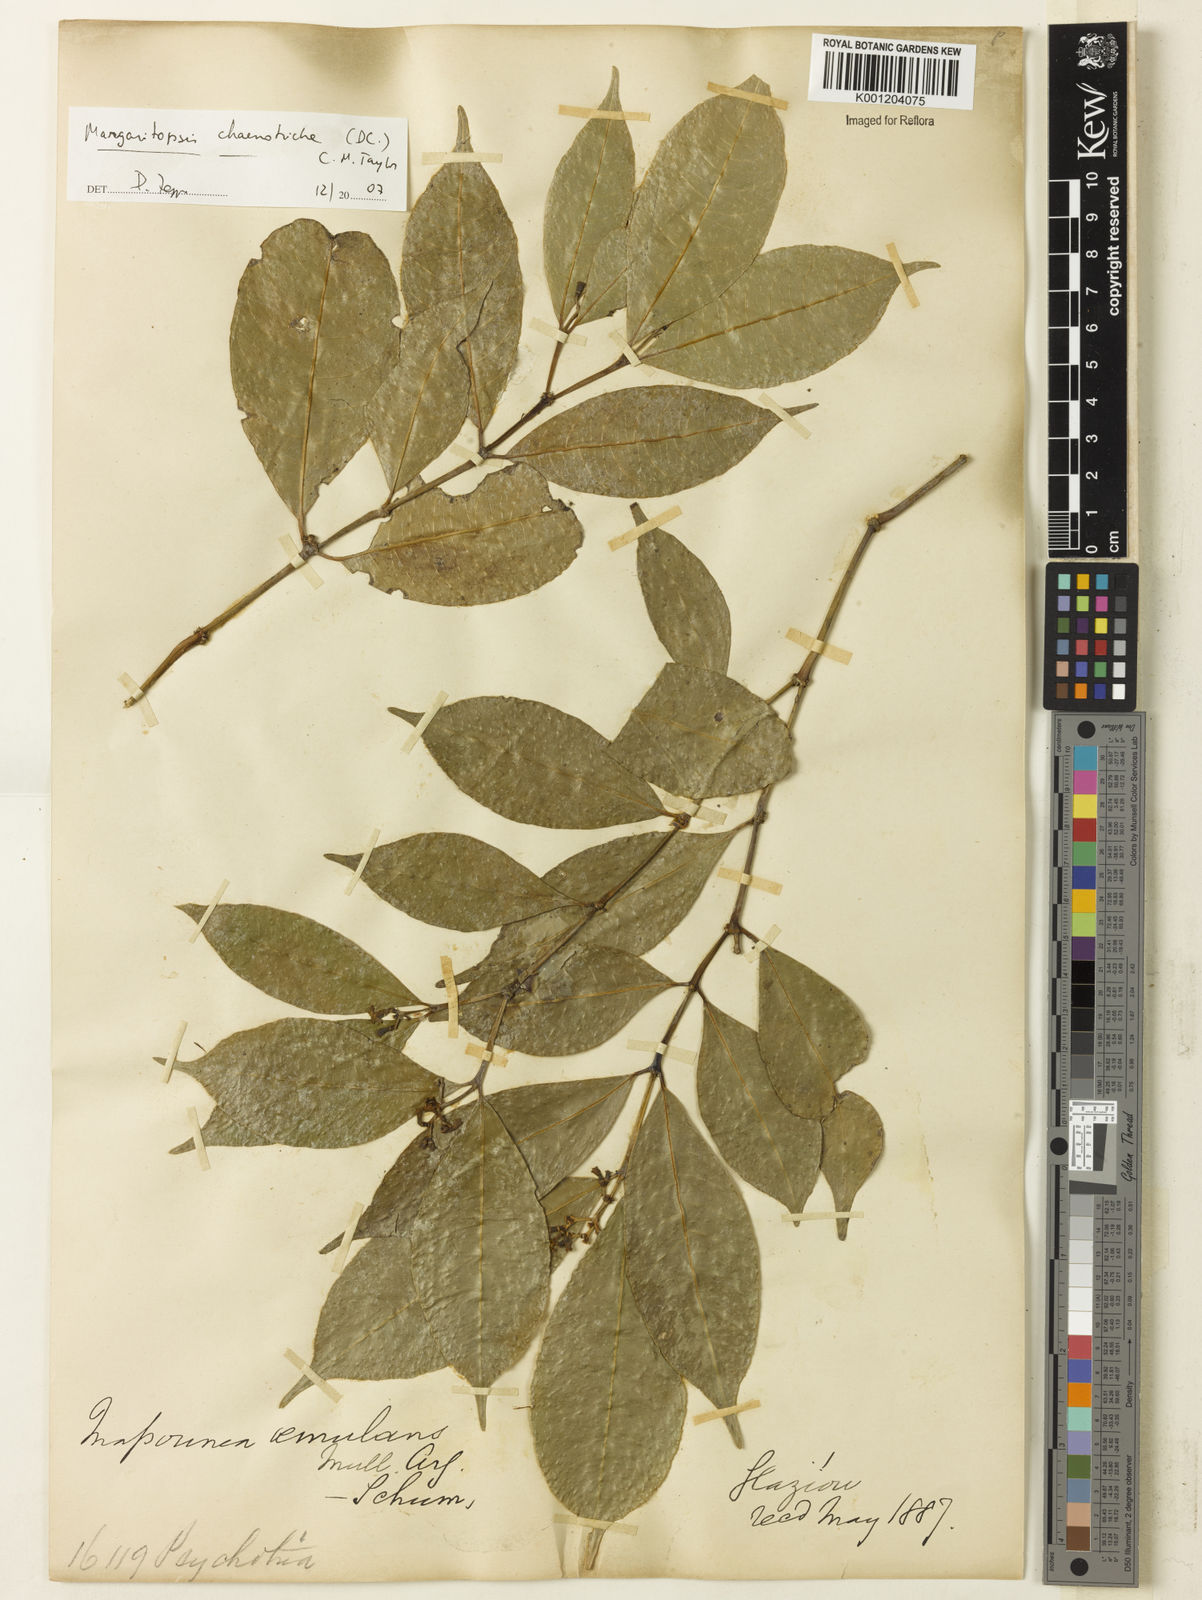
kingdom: Plantae
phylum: Tracheophyta
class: Magnoliopsida
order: Gentianales
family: Rubiaceae
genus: Eumachia
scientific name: Eumachia chaenotricha
